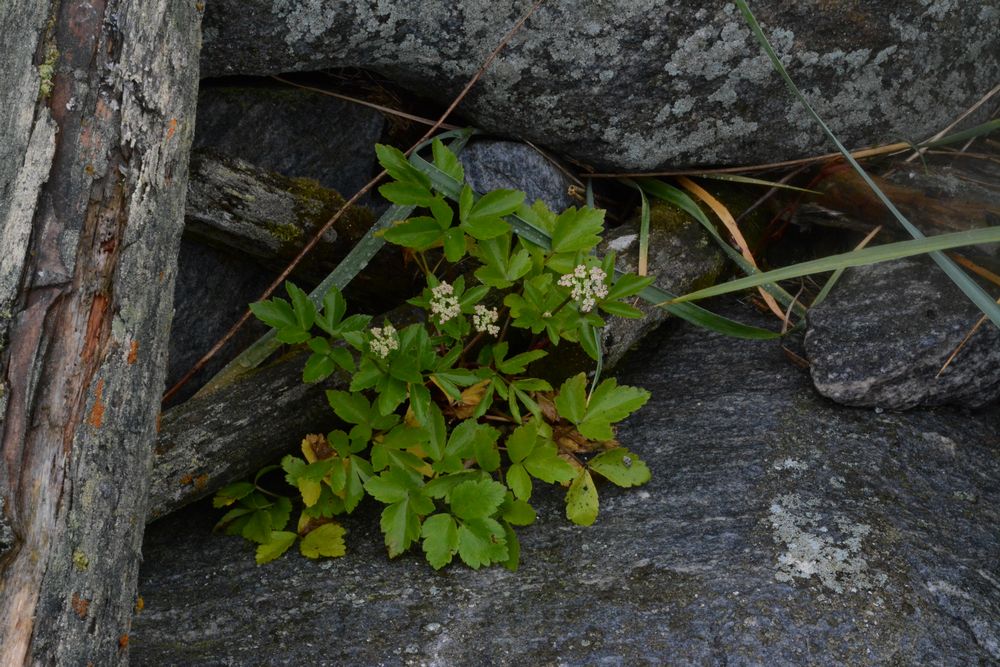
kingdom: Plantae
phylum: Tracheophyta
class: Magnoliopsida
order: Apiales
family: Apiaceae
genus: Ligusticum
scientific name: Ligusticum scothicum
